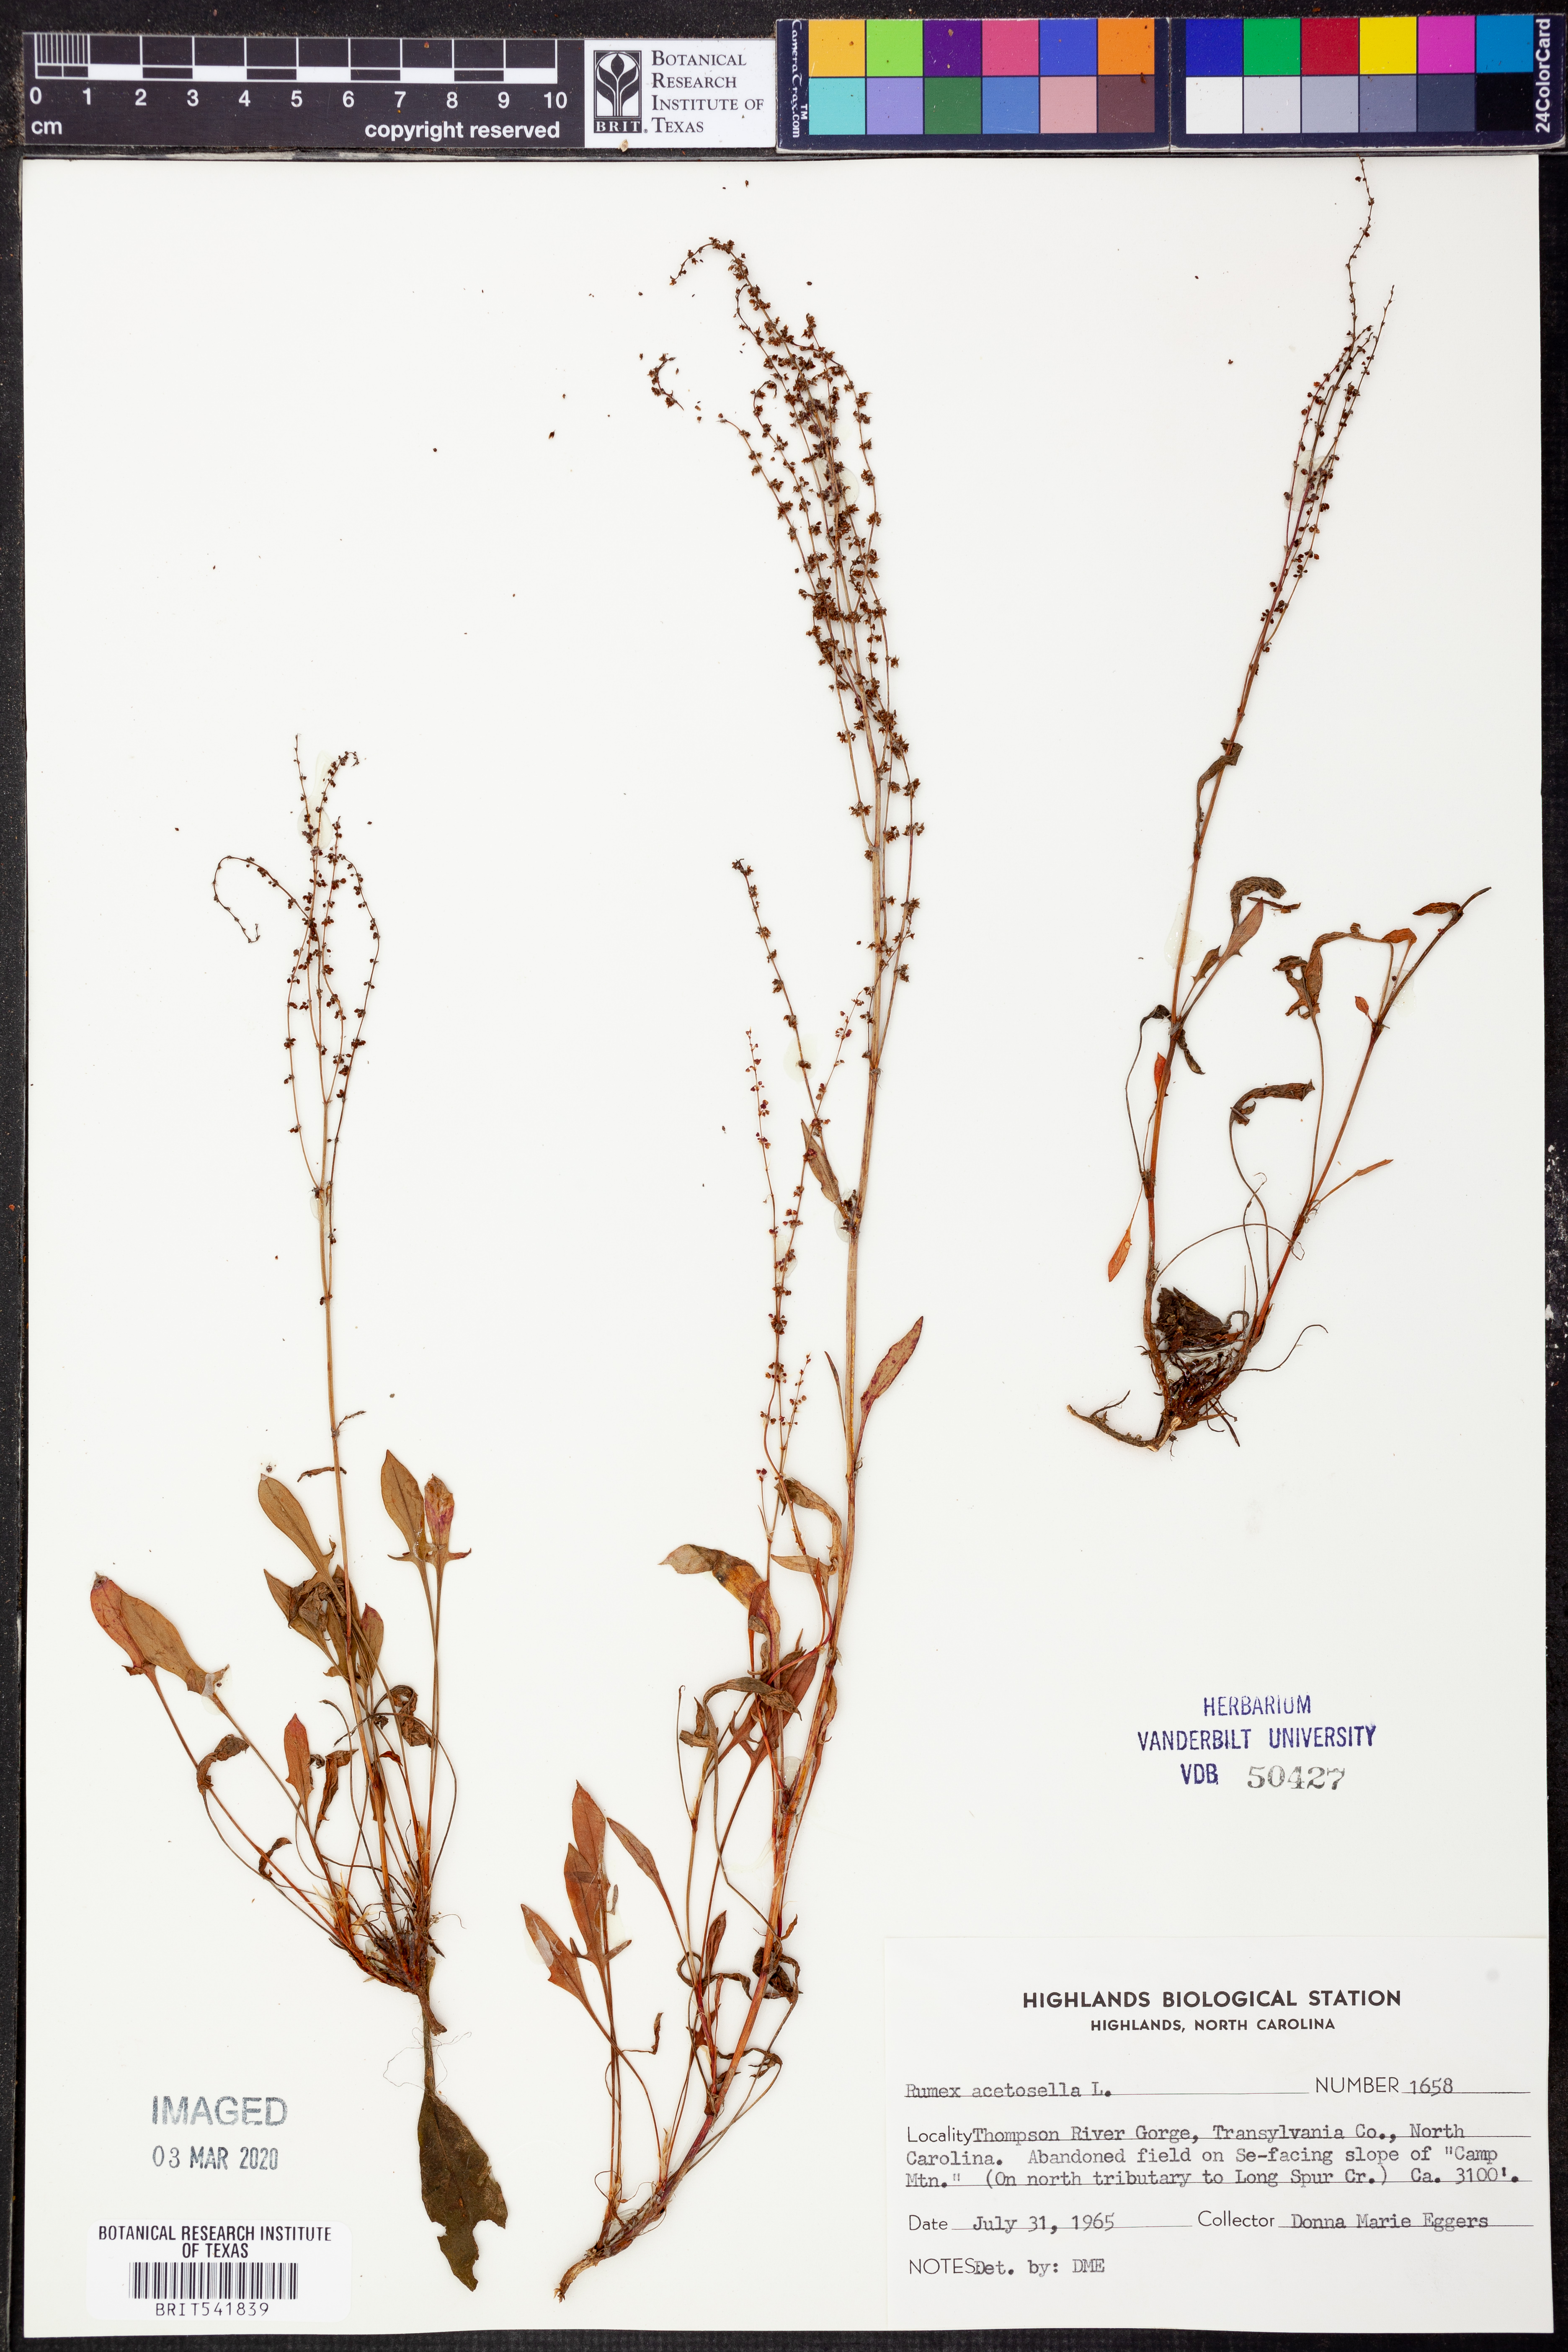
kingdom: Plantae
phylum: Tracheophyta
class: Magnoliopsida
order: Caryophyllales
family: Polygonaceae
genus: Rumex
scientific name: Rumex acetosella
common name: Common sheep sorrel
